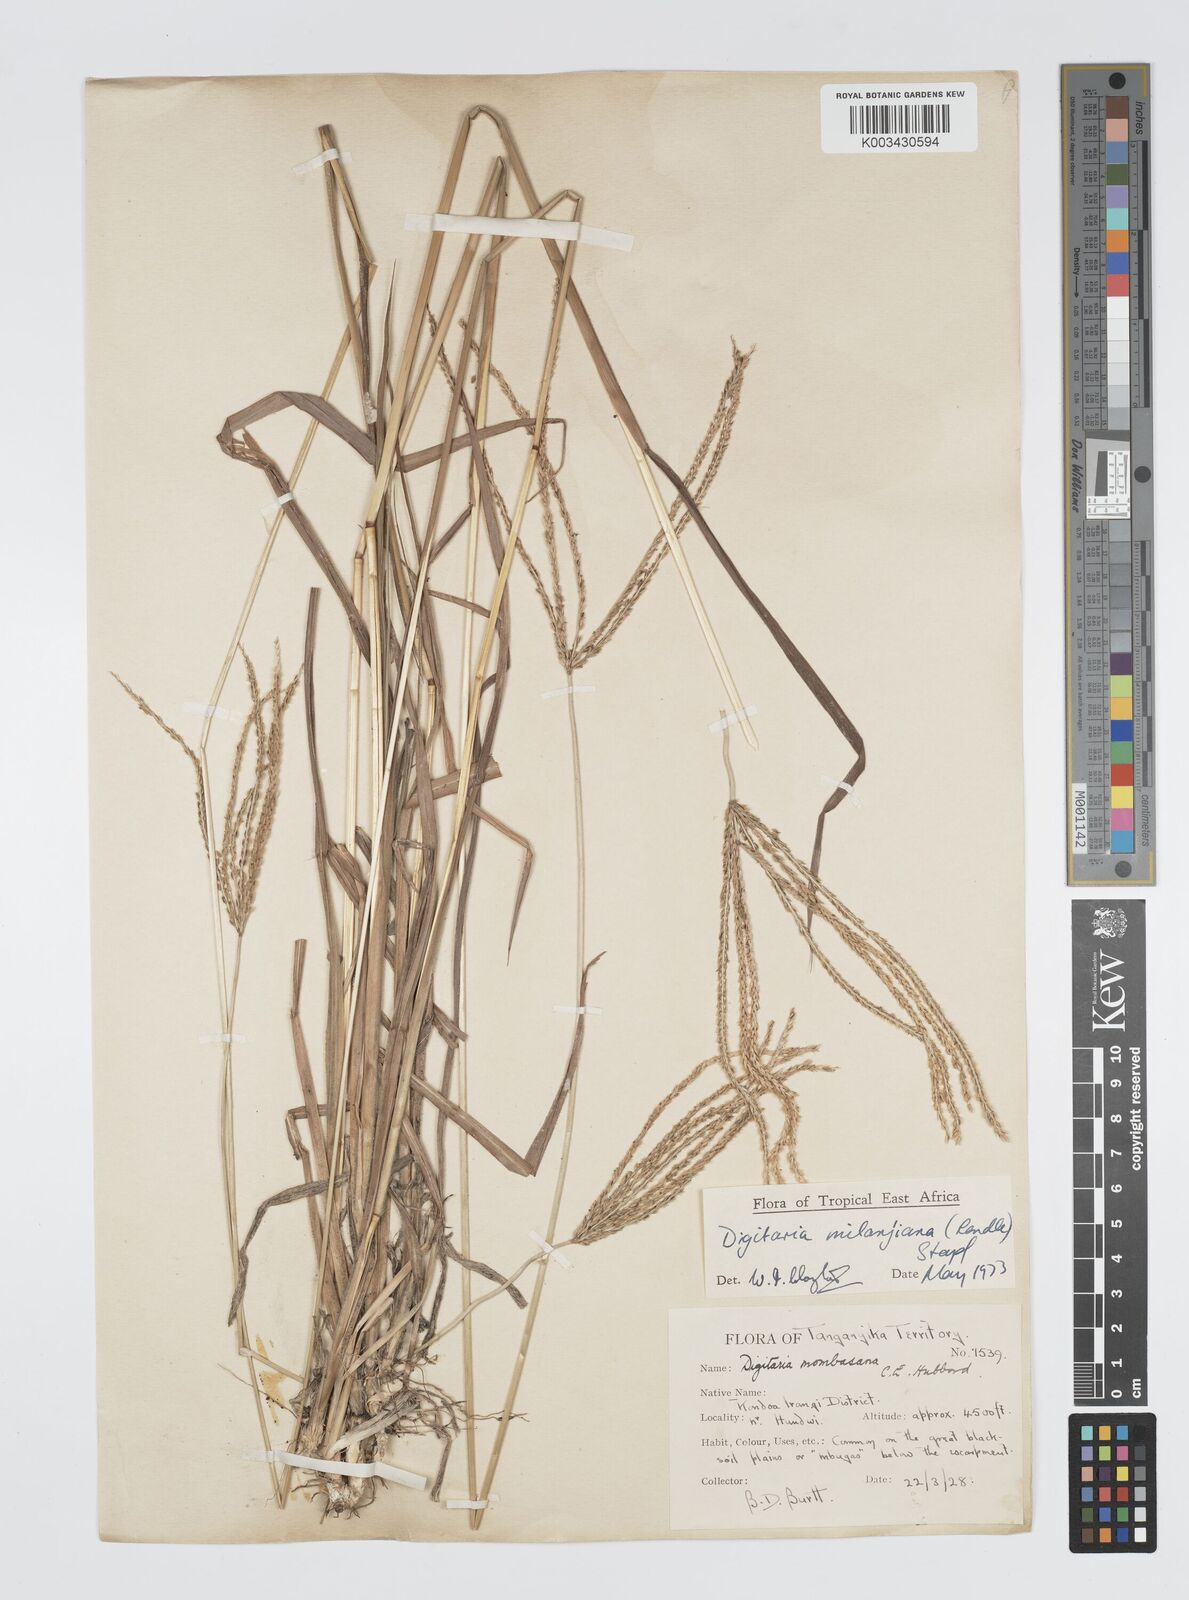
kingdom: Plantae
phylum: Tracheophyta
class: Liliopsida
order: Poales
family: Poaceae
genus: Digitaria
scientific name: Digitaria milanjiana
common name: Madagascar crabgrass
